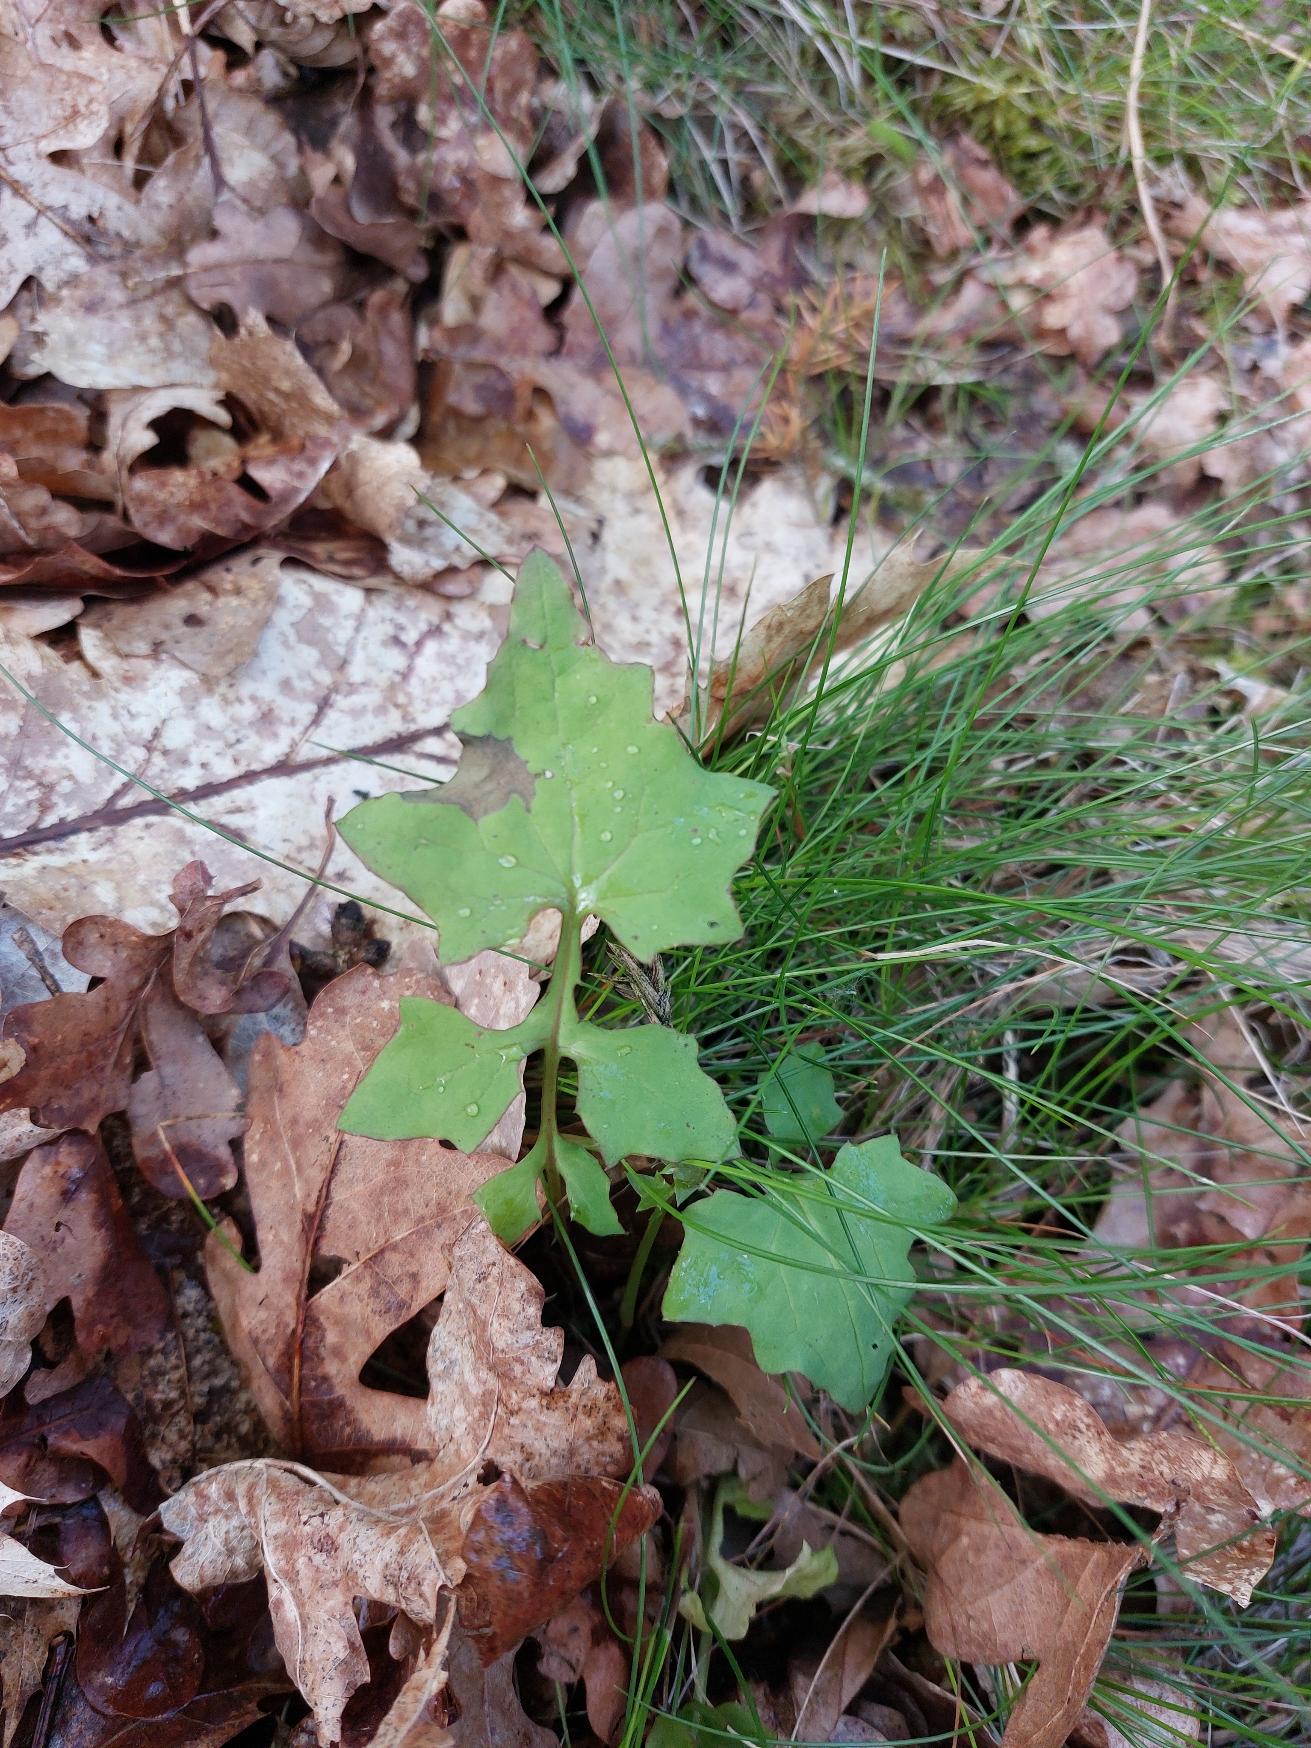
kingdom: Plantae
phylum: Tracheophyta
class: Magnoliopsida
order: Asterales
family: Asteraceae
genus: Mycelis
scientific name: Mycelis muralis
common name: Skov-salat
